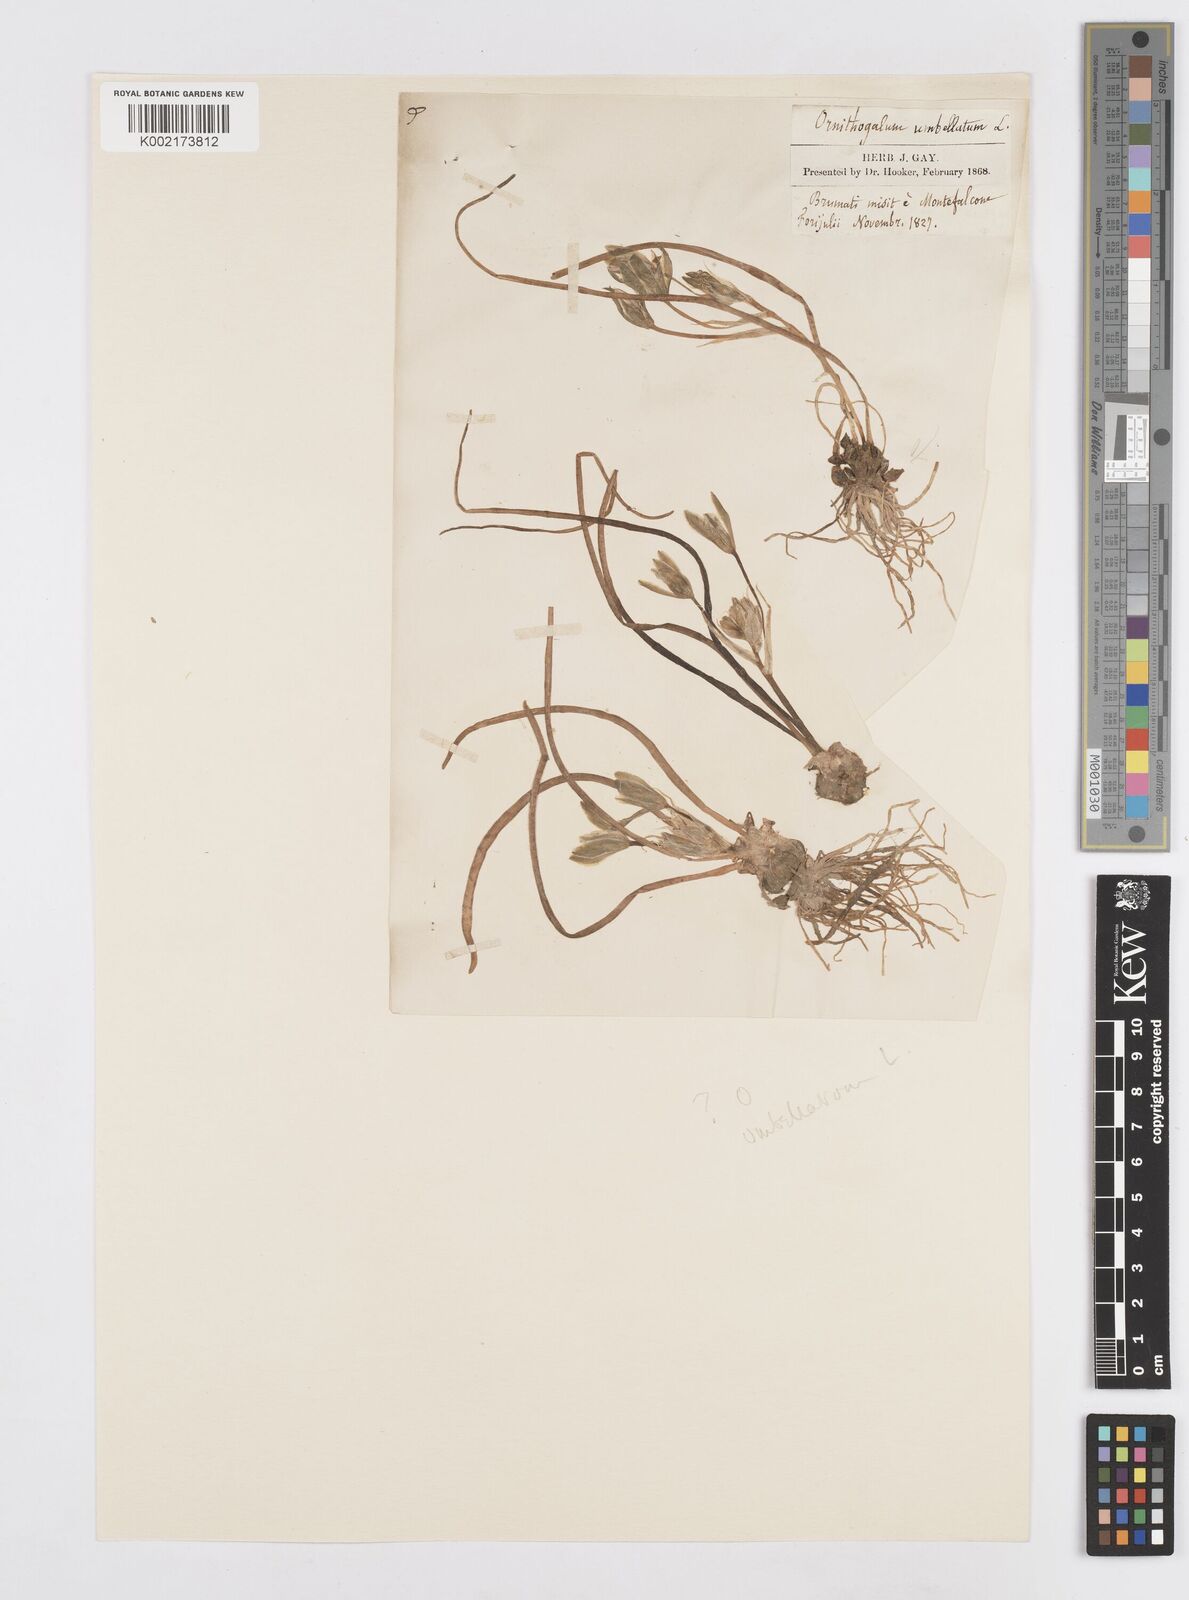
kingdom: Plantae
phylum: Tracheophyta
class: Liliopsida
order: Asparagales
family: Asparagaceae
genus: Ornithogalum
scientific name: Ornithogalum umbellatum
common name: Garden star-of-bethlehem
